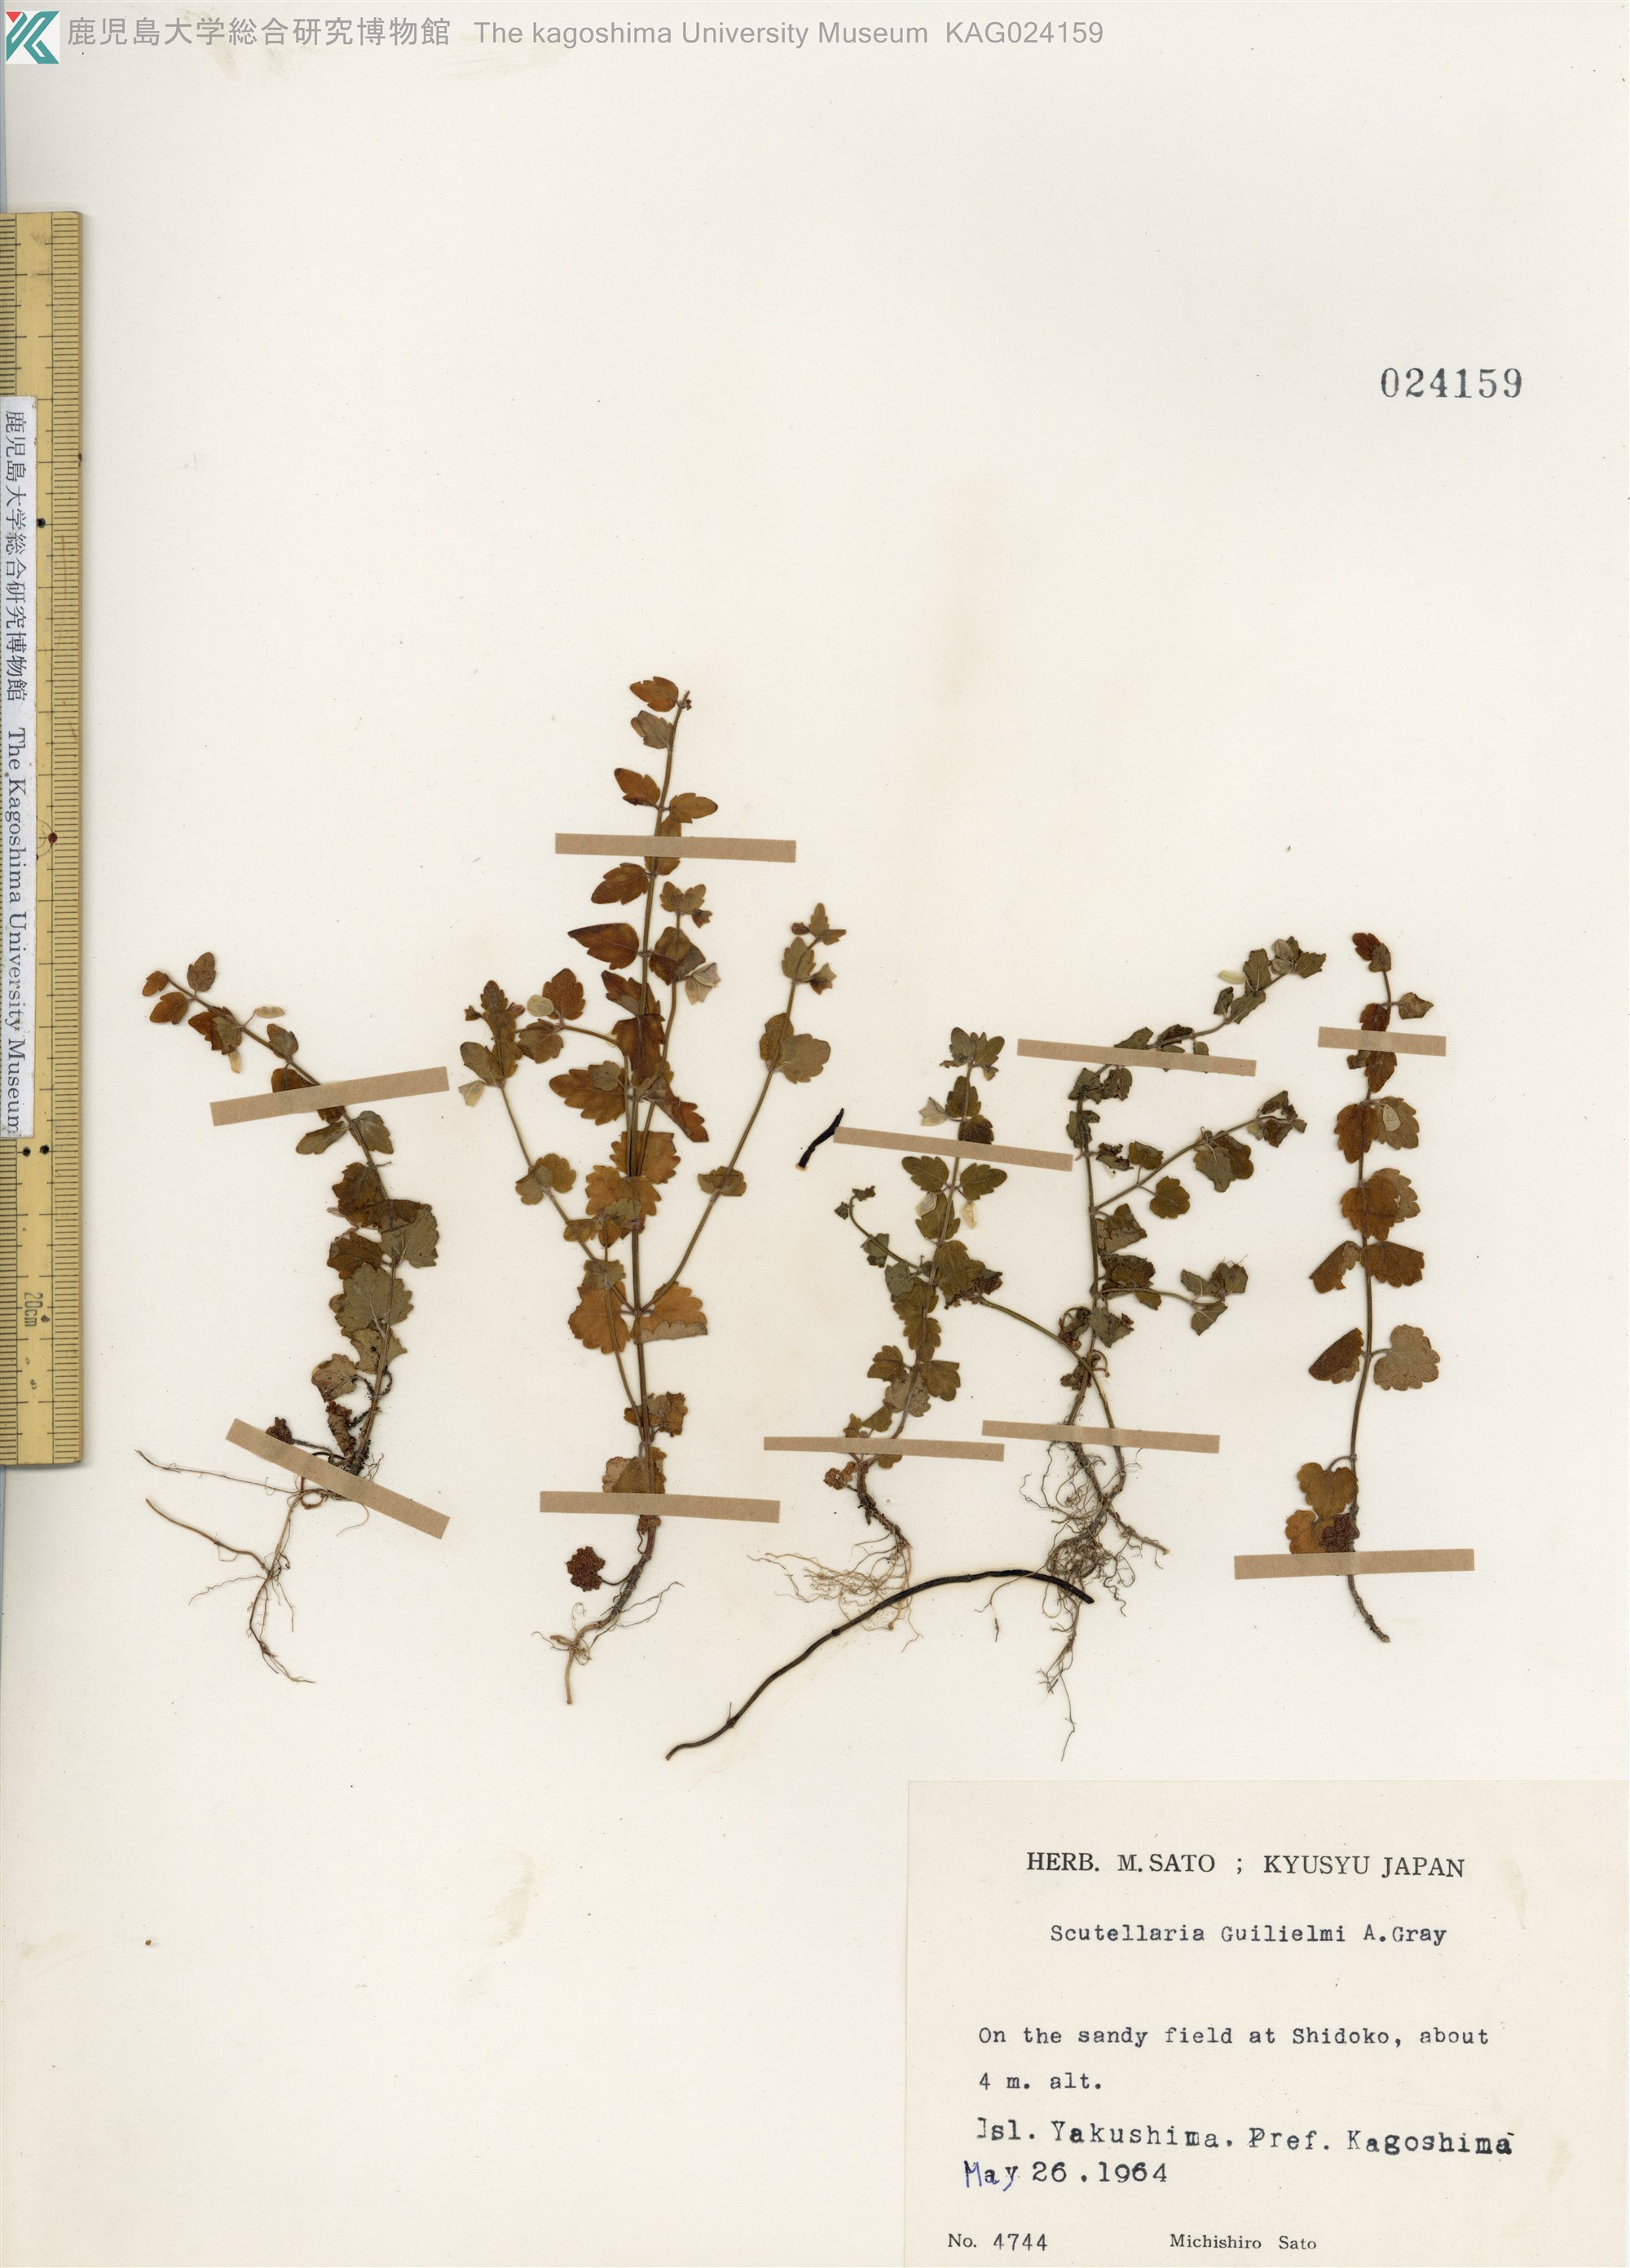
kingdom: Plantae
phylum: Tracheophyta
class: Magnoliopsida
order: Lamiales
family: Lamiaceae
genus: Scutellaria
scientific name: Scutellaria guilielmi
